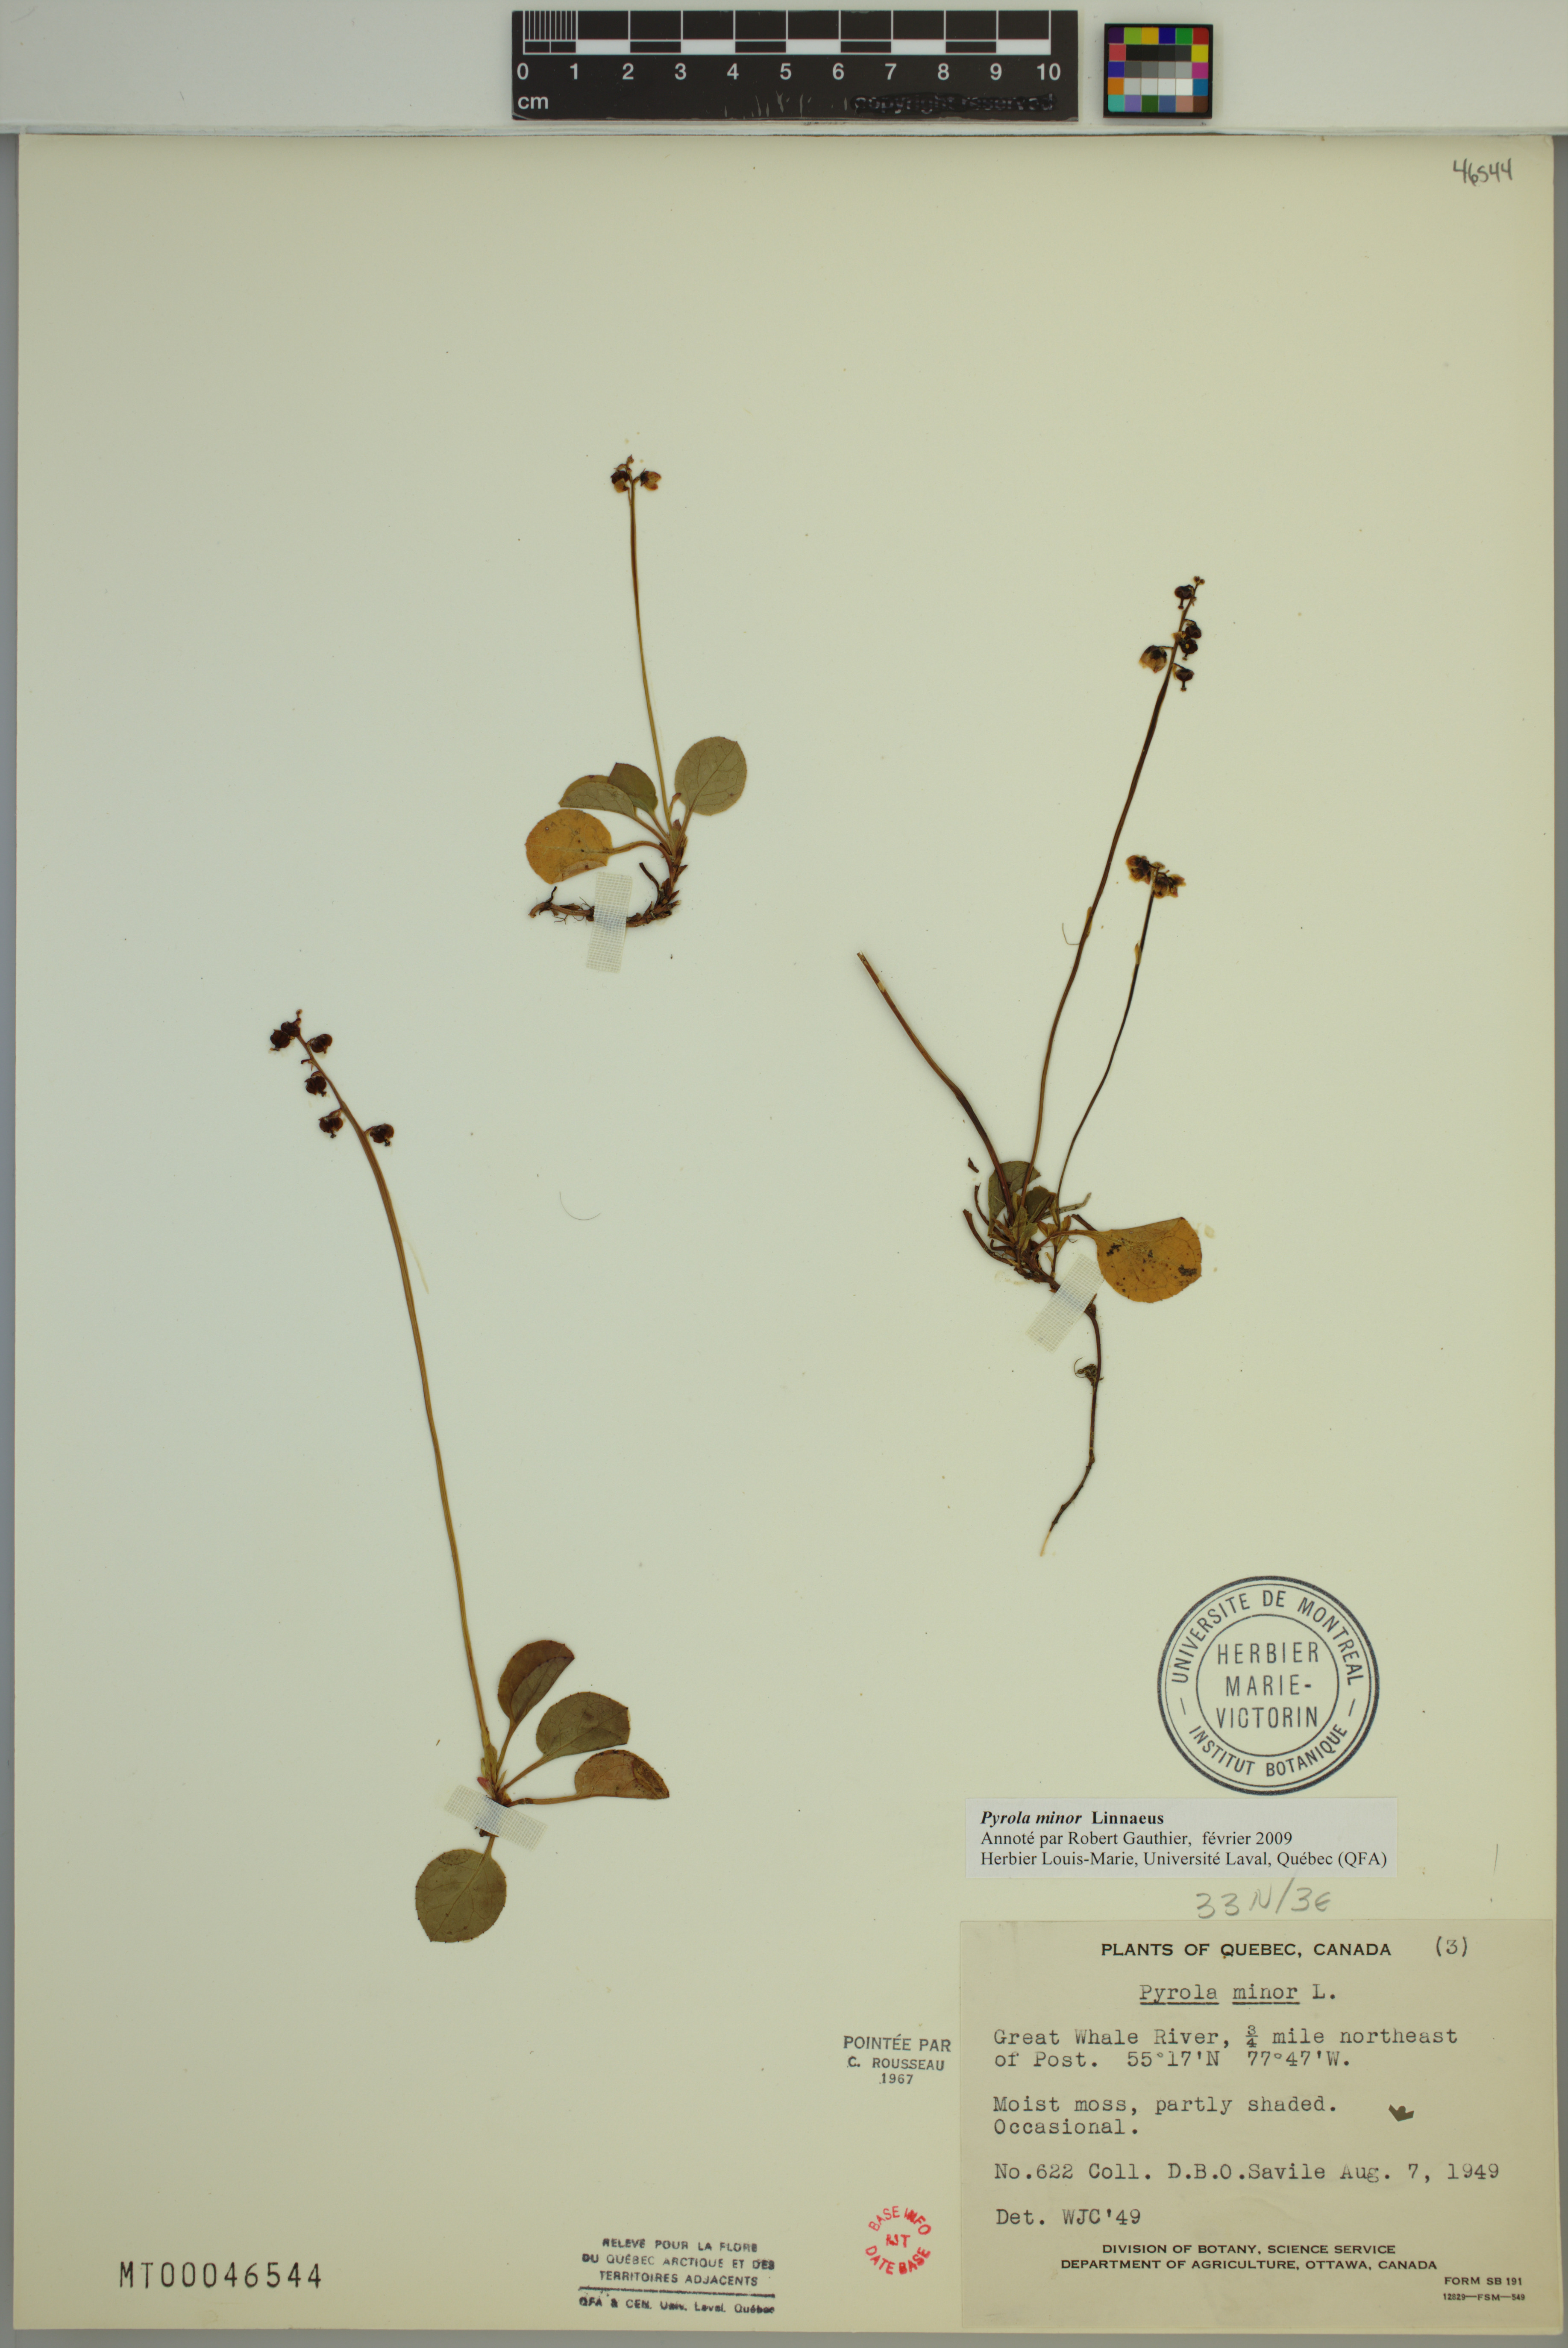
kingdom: Plantae
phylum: Tracheophyta
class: Magnoliopsida
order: Ericales
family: Ericaceae
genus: Pyrola
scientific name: Pyrola minor
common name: Common wintergreen
